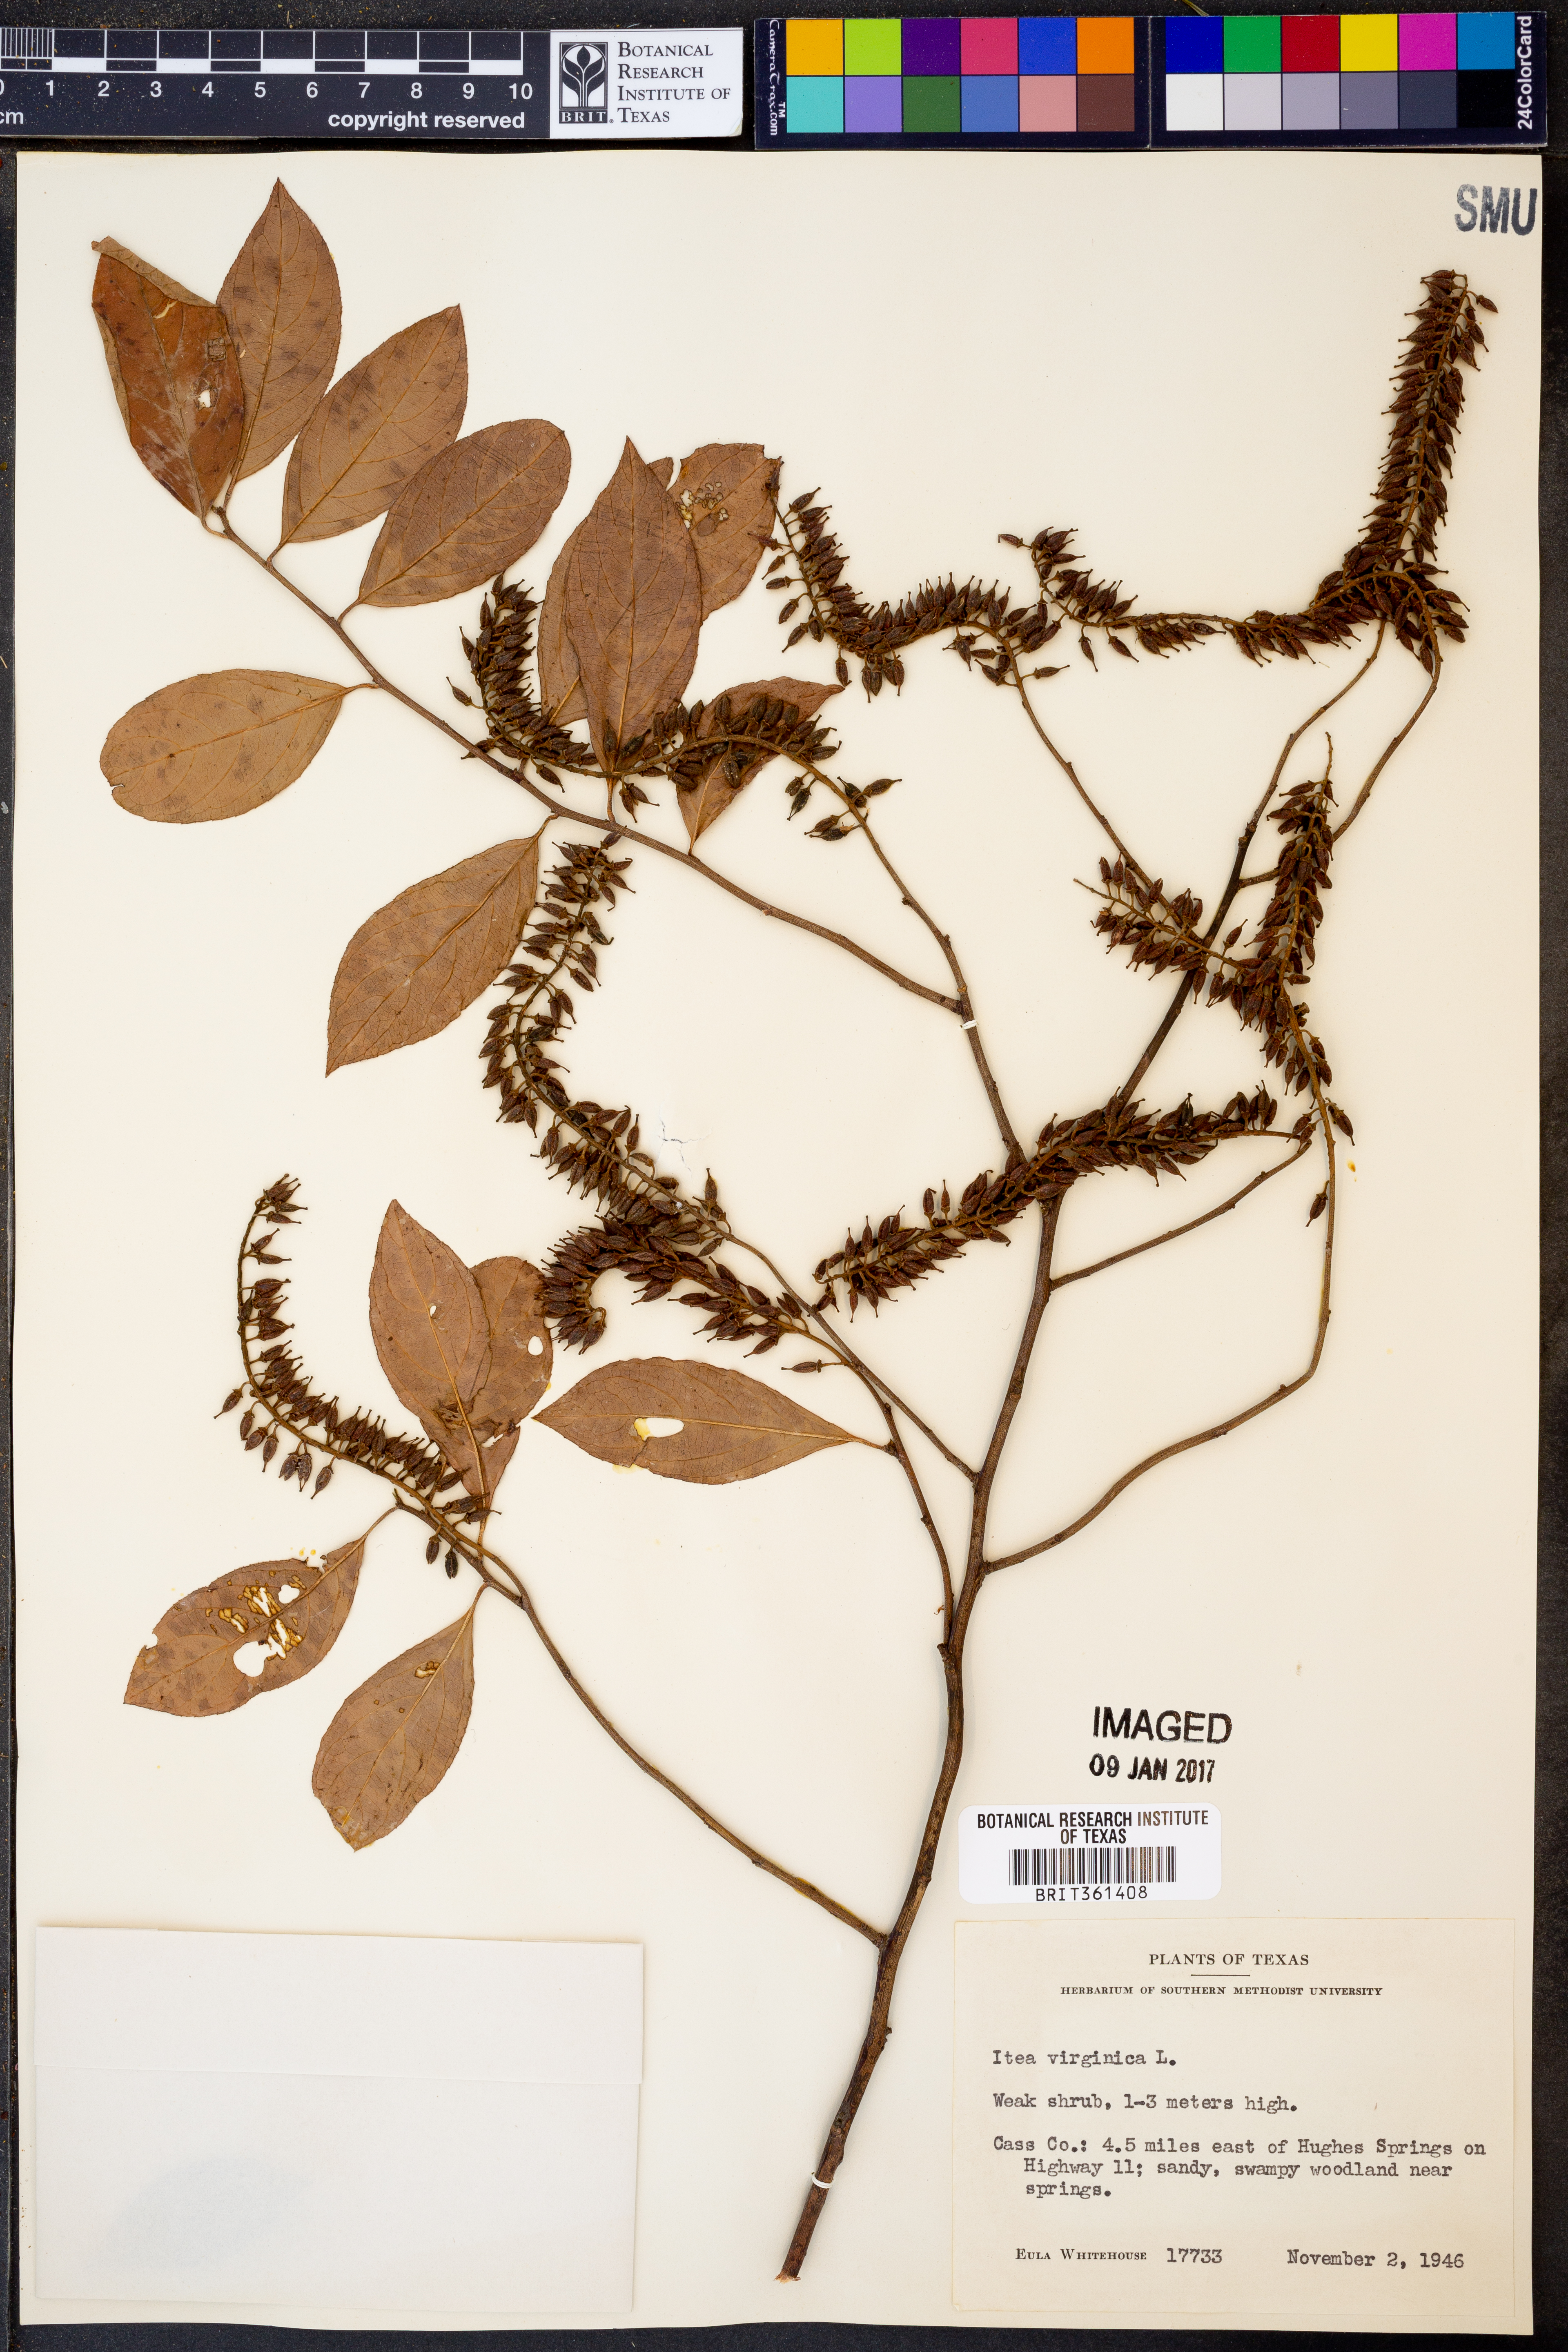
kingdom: Plantae
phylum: Tracheophyta
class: Magnoliopsida
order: Saxifragales
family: Iteaceae
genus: Itea
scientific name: Itea virginica
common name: Sweetspire
